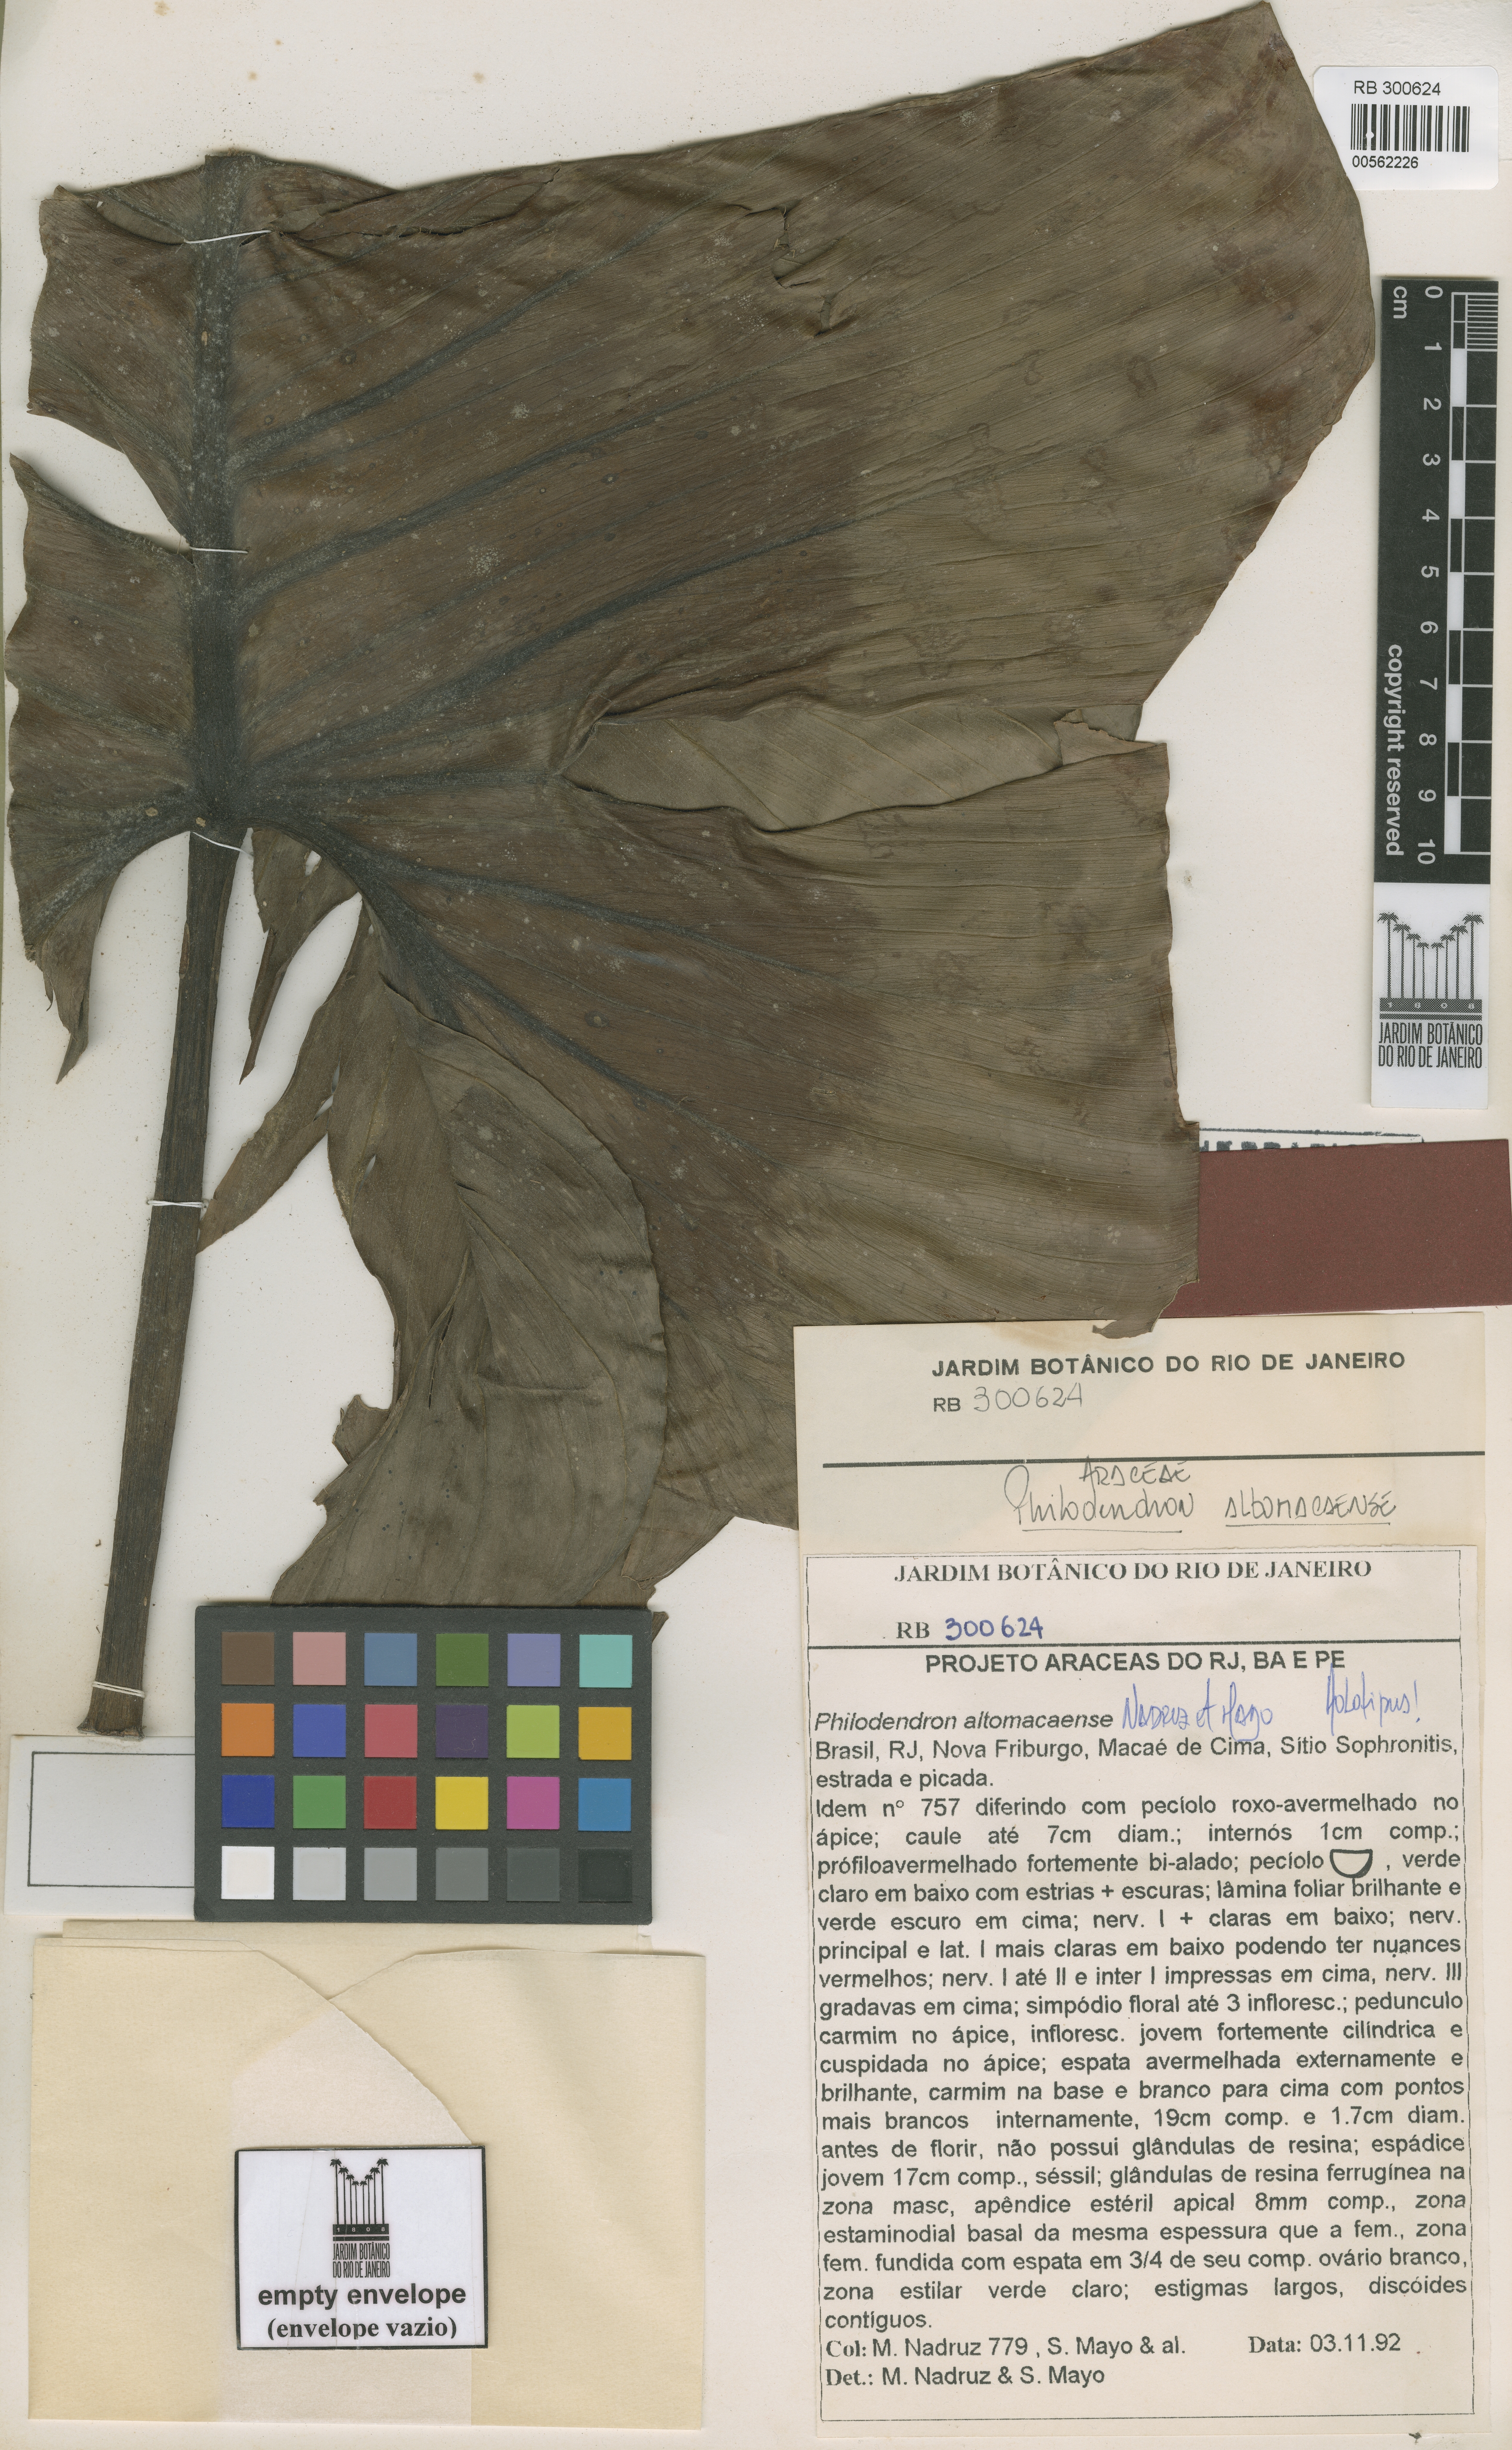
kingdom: Plantae
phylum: Tracheophyta
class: Liliopsida
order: Alismatales
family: Araceae
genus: Philodendron
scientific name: Philodendron altomacaense
